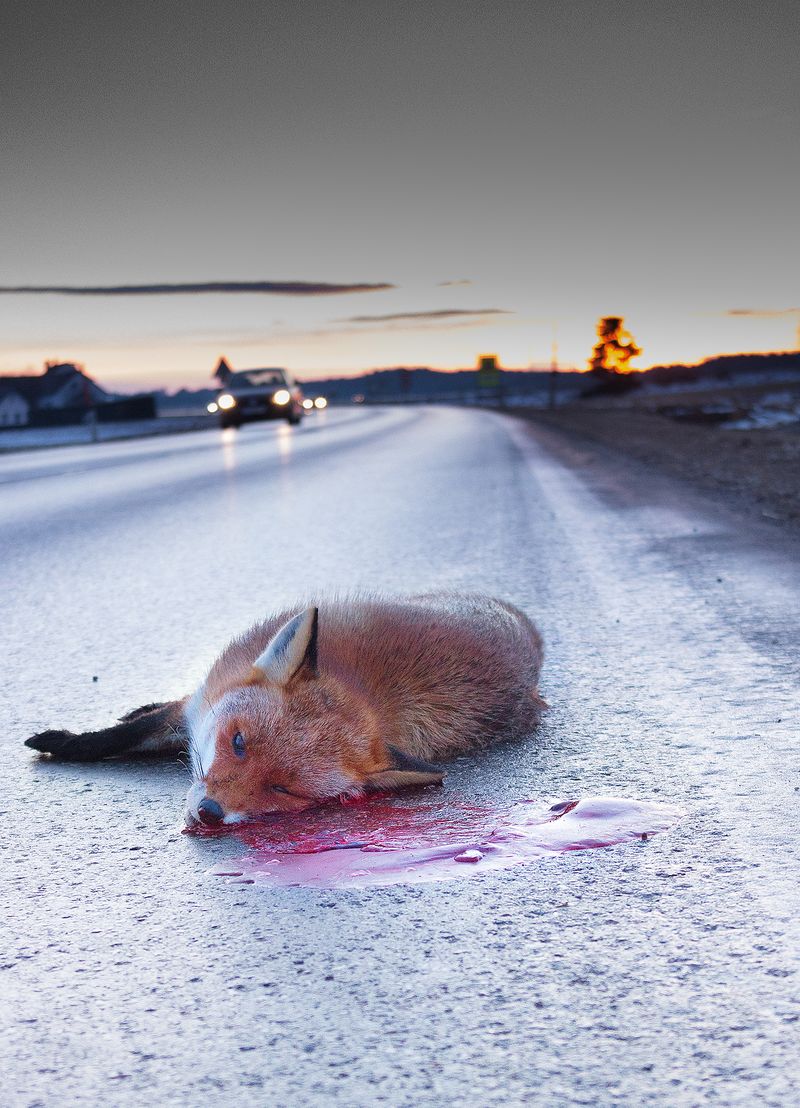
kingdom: Animalia
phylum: Chordata
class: Mammalia
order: Carnivora
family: Canidae
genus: Vulpes
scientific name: Vulpes vulpes
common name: Red fox
